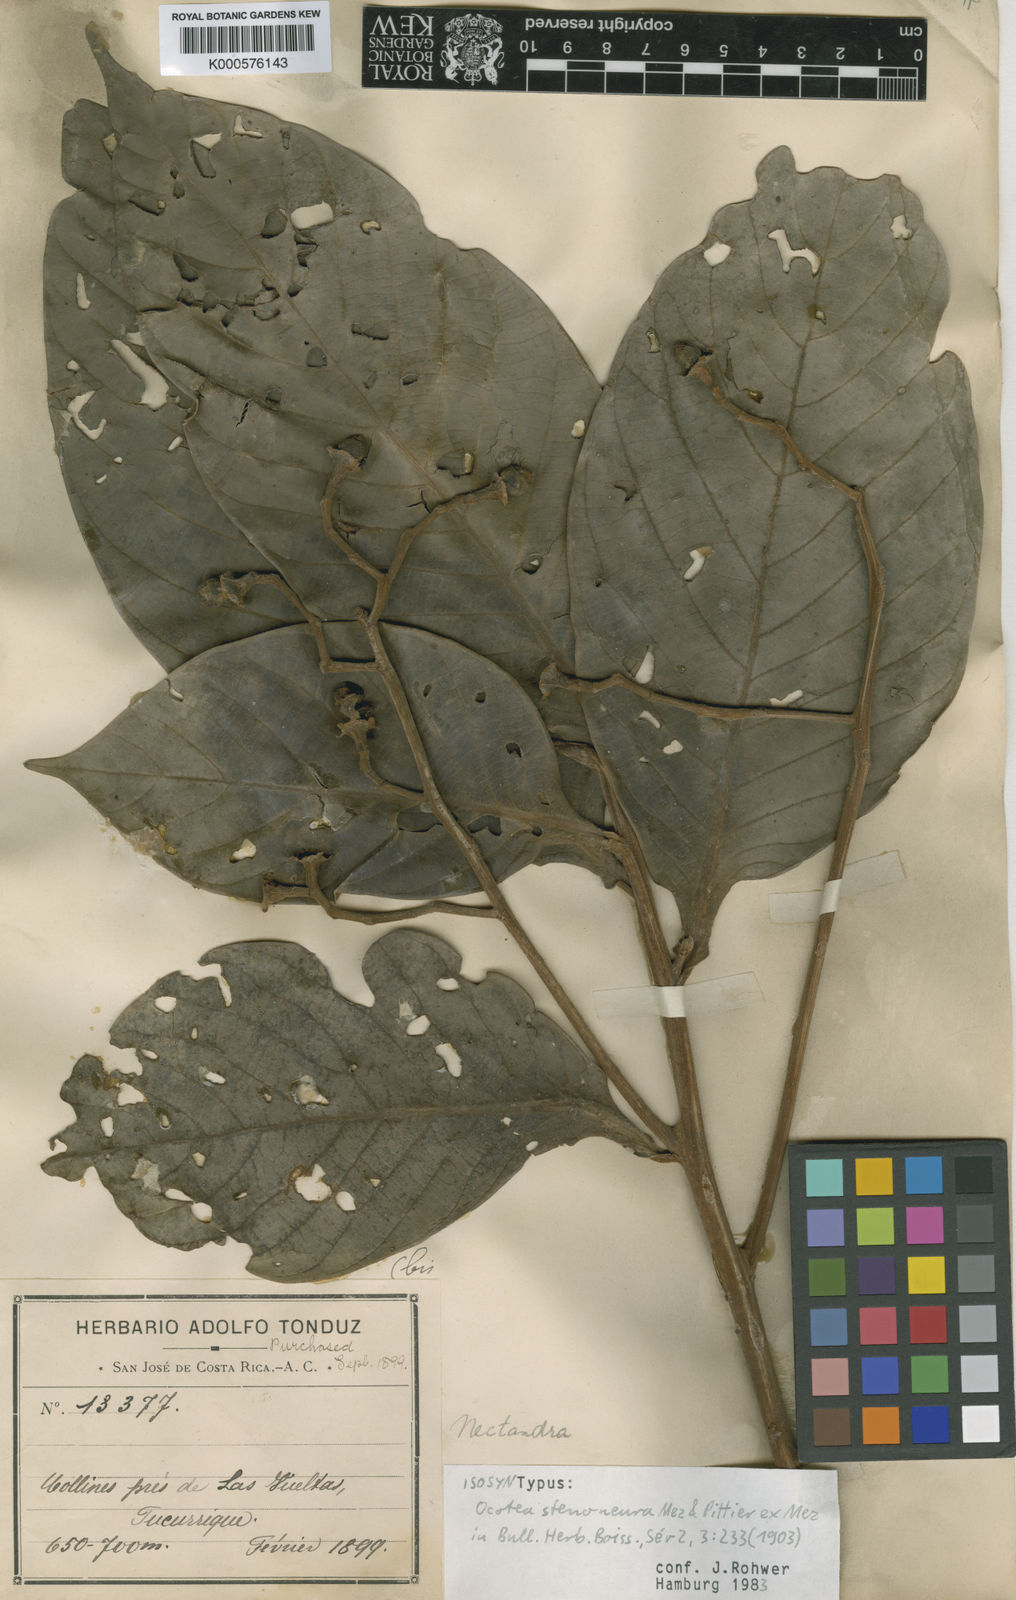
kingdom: Plantae
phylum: Tracheophyta
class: Magnoliopsida
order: Laurales
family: Lauraceae
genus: Ocotea
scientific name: Ocotea stenoneura
